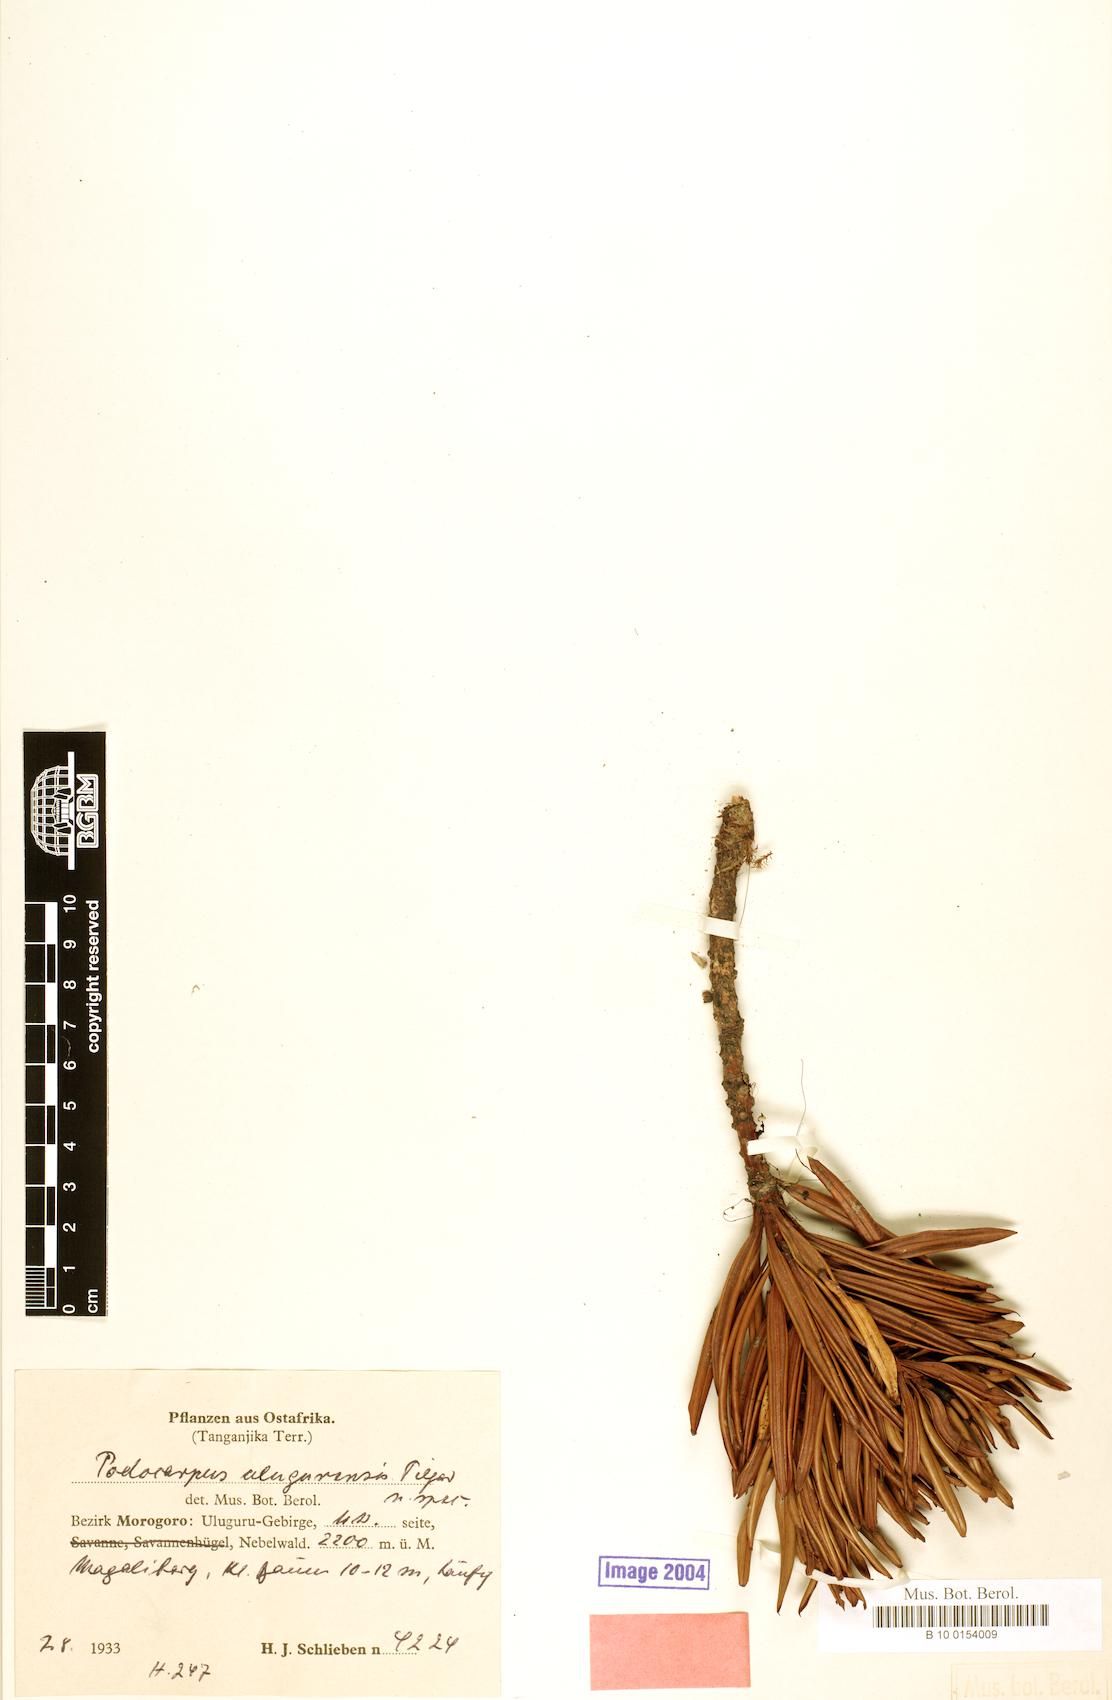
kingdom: Plantae
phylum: Tracheophyta
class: Pinopsida
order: Pinales
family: Podocarpaceae
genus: Podocarpus
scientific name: Podocarpus milanjianus
